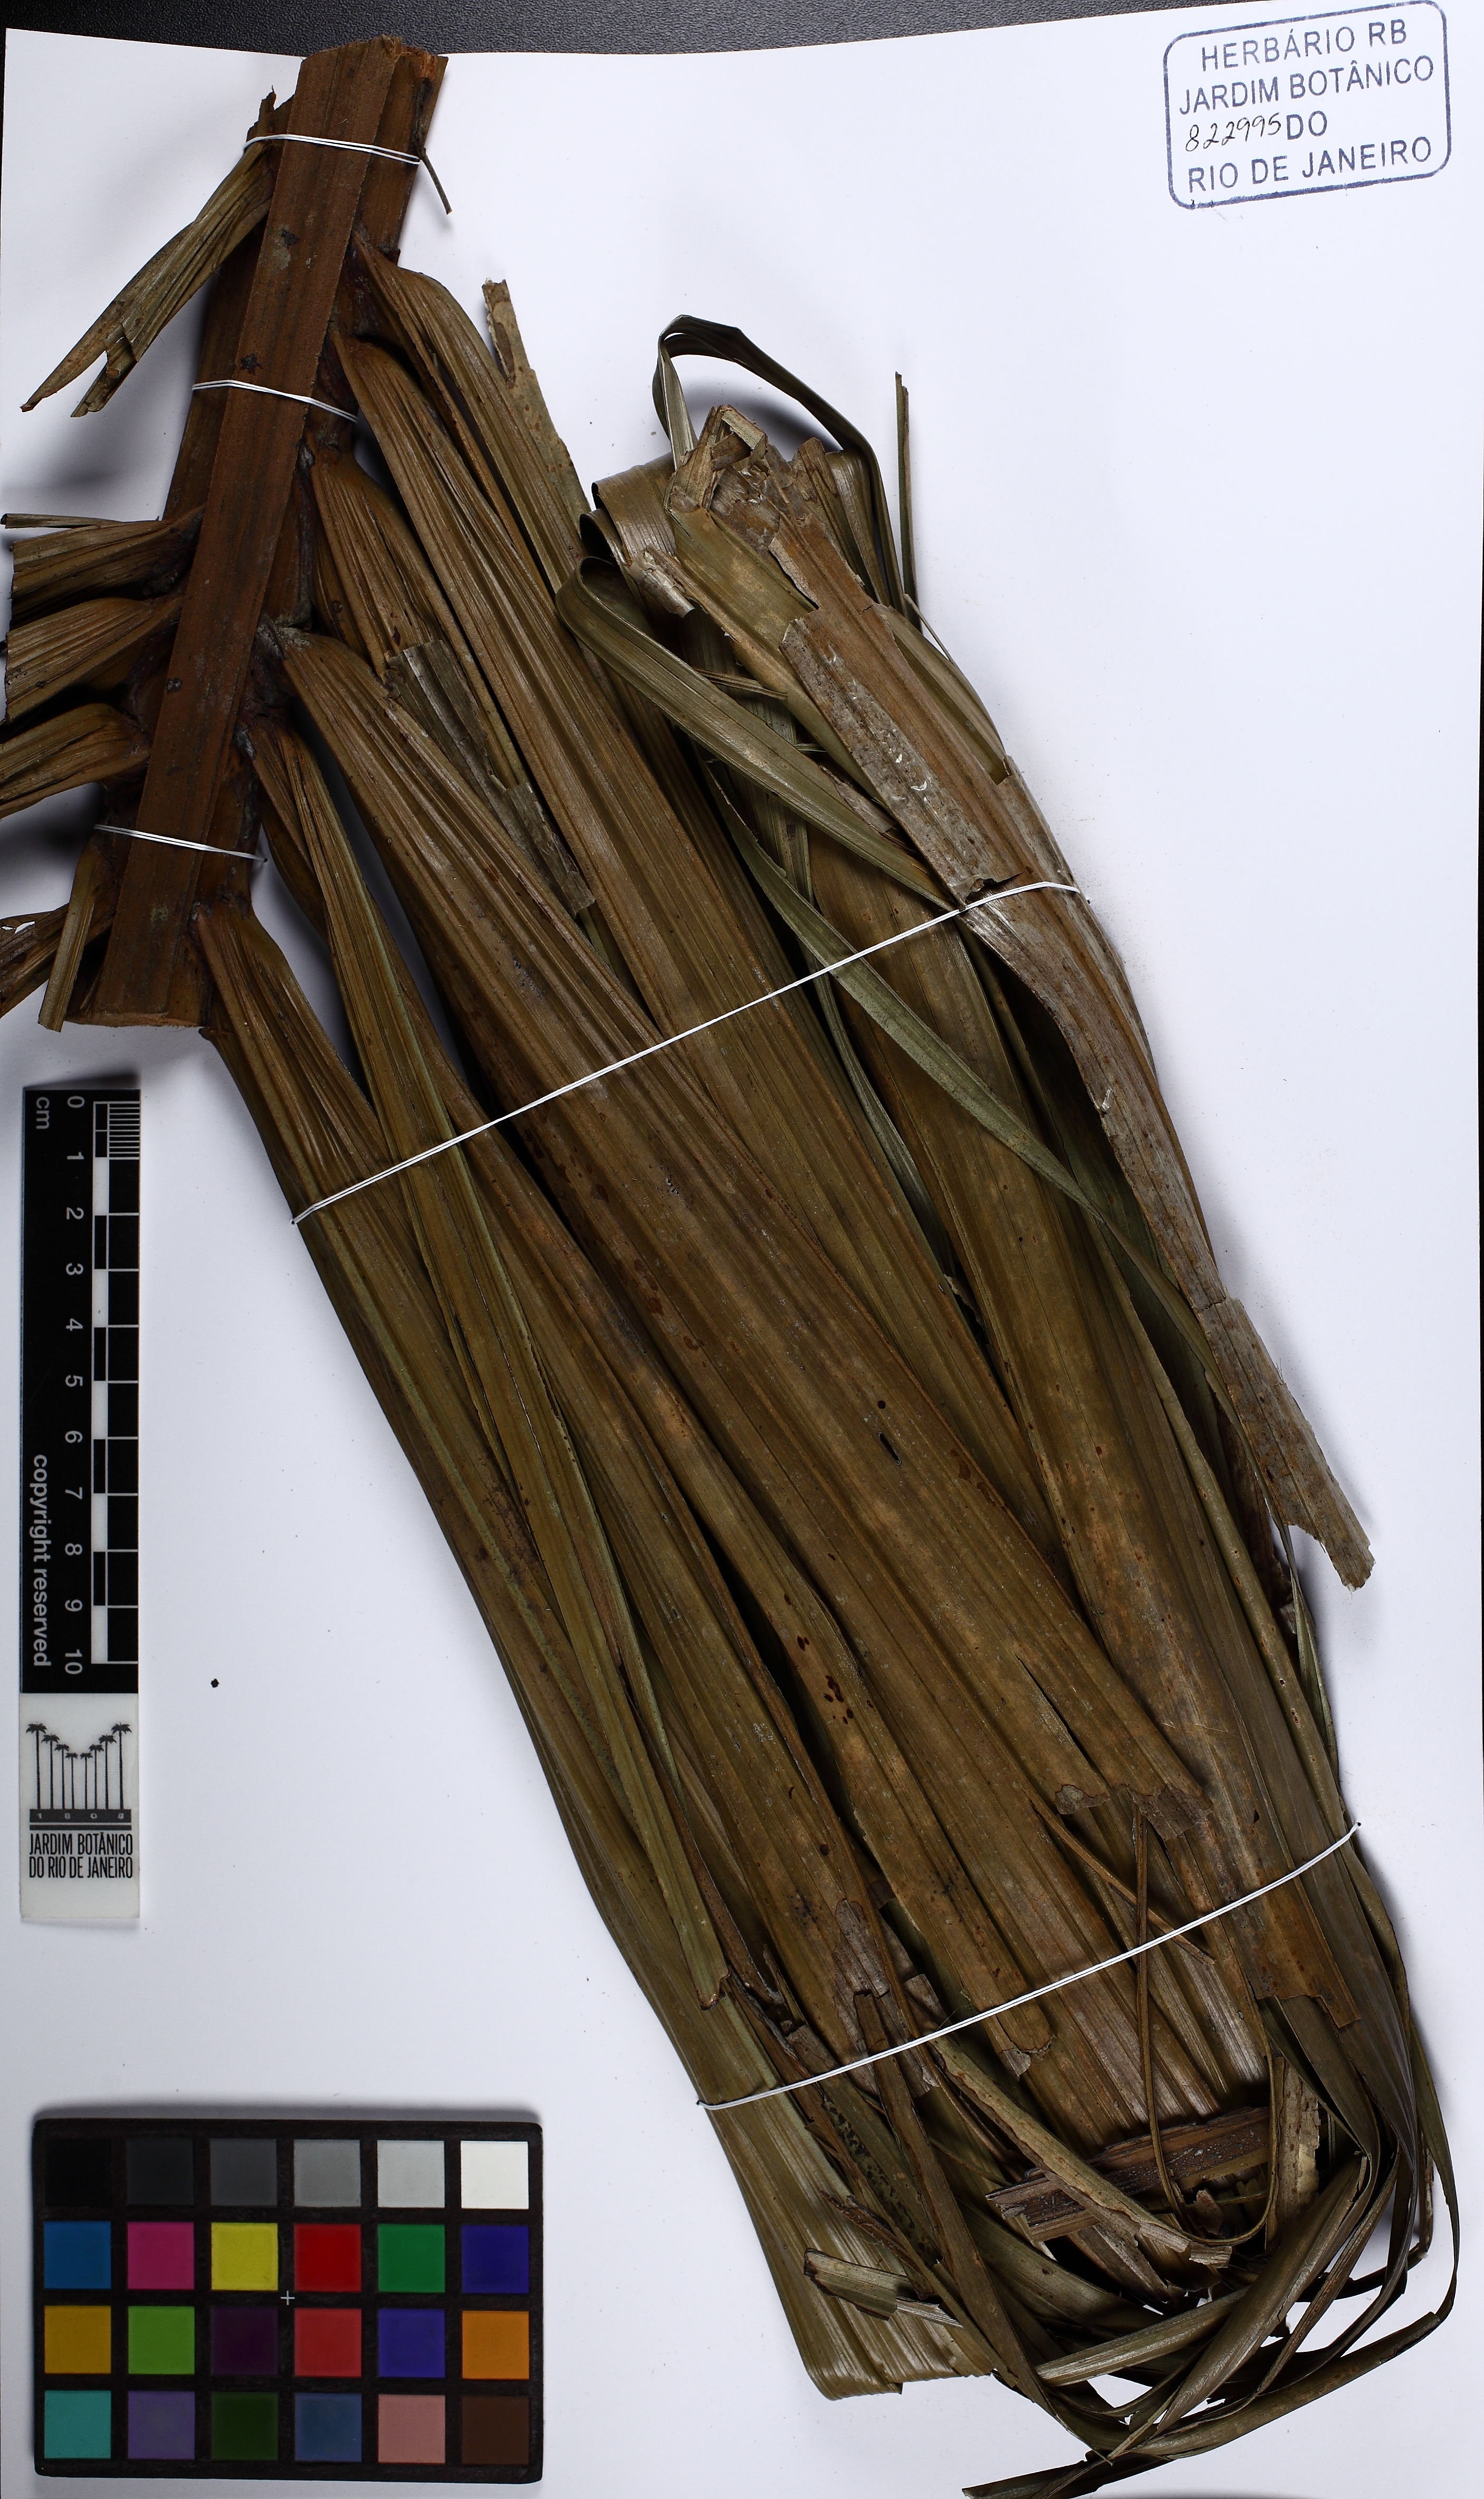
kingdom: Plantae
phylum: Tracheophyta
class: Liliopsida
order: Arecales
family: Arecaceae
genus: Oenocarpus
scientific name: Oenocarpus distichus
